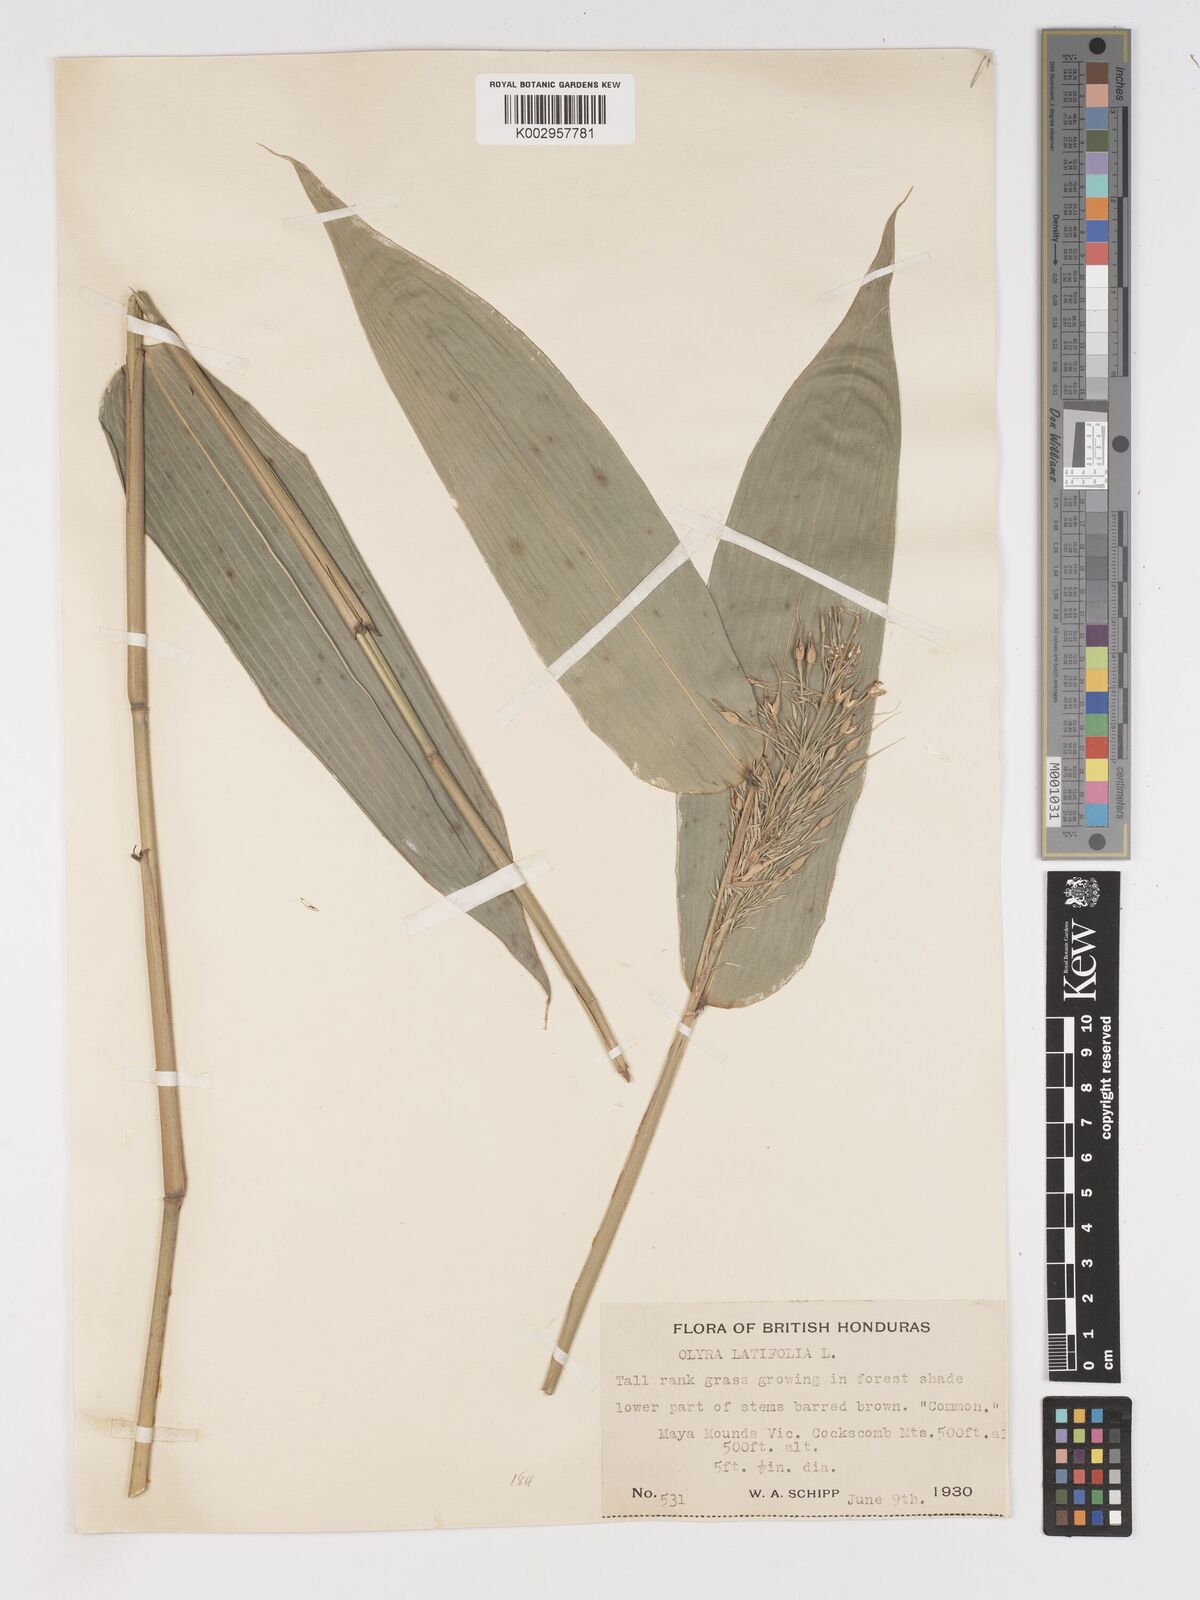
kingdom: Plantae
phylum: Tracheophyta
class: Liliopsida
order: Poales
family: Poaceae
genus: Olyra
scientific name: Olyra latifolia
